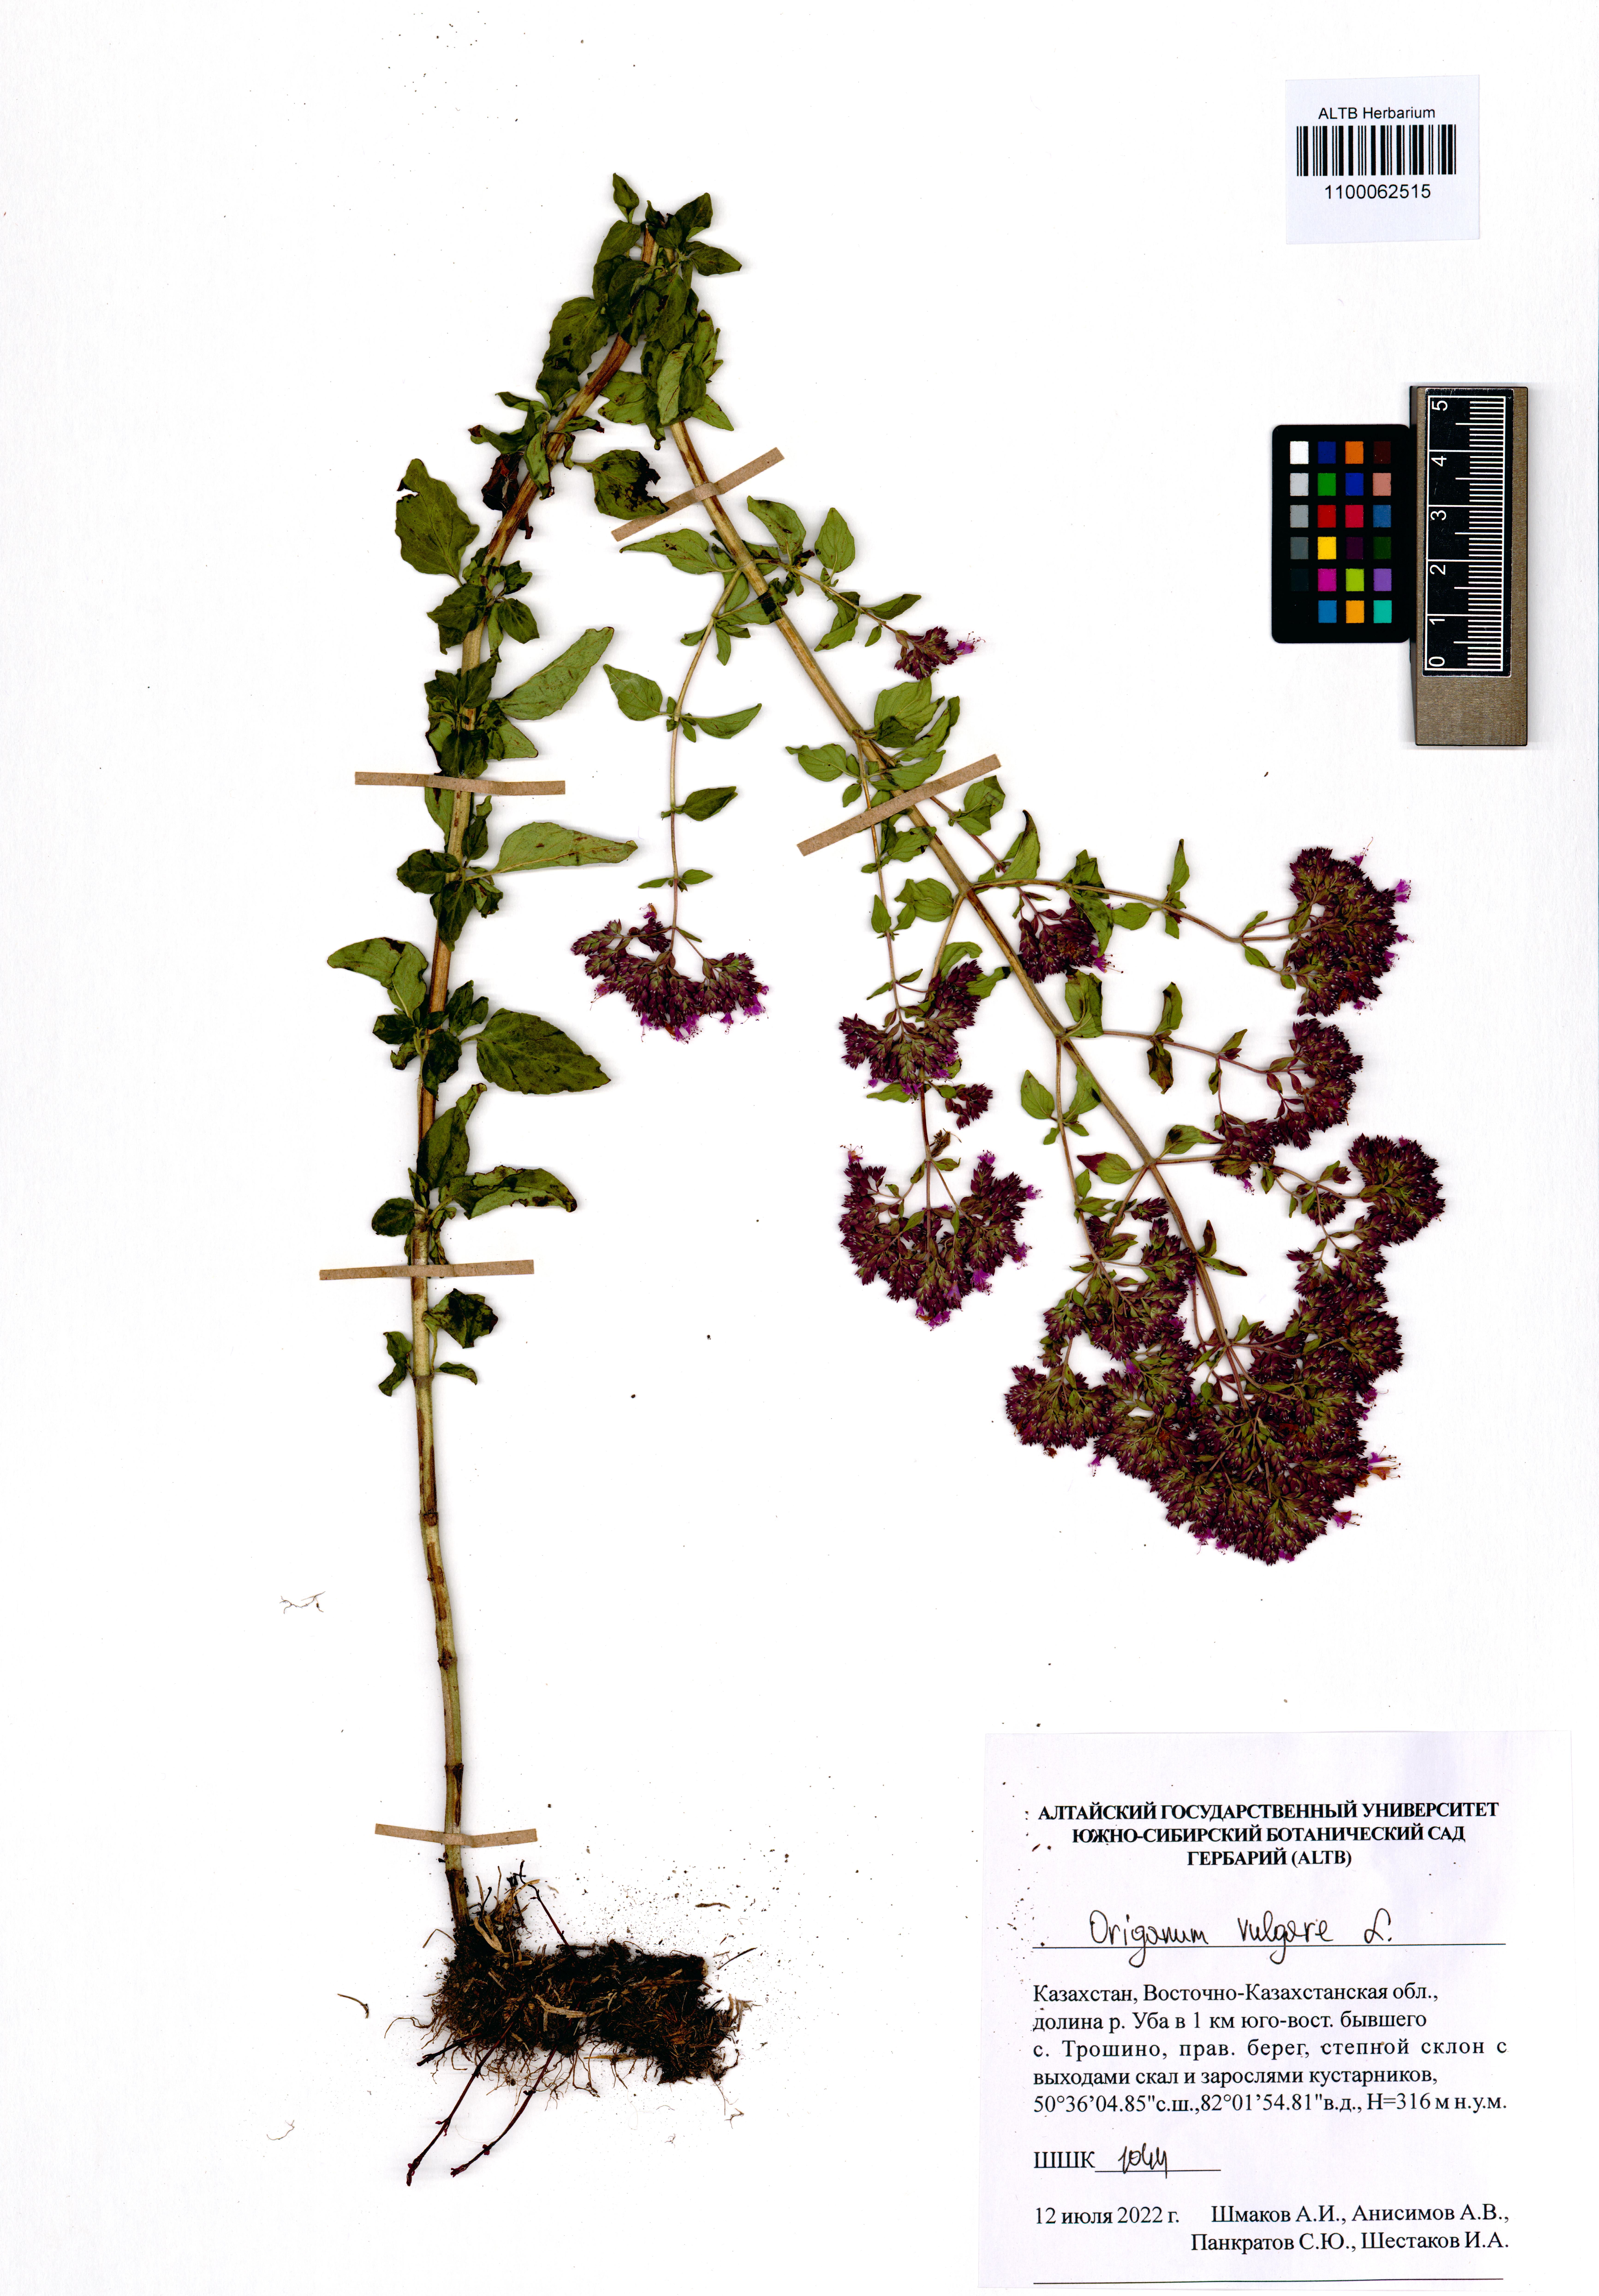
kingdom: Plantae
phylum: Tracheophyta
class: Magnoliopsida
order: Lamiales
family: Lamiaceae
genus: Origanum
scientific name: Origanum vulgare
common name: Wild marjoram
